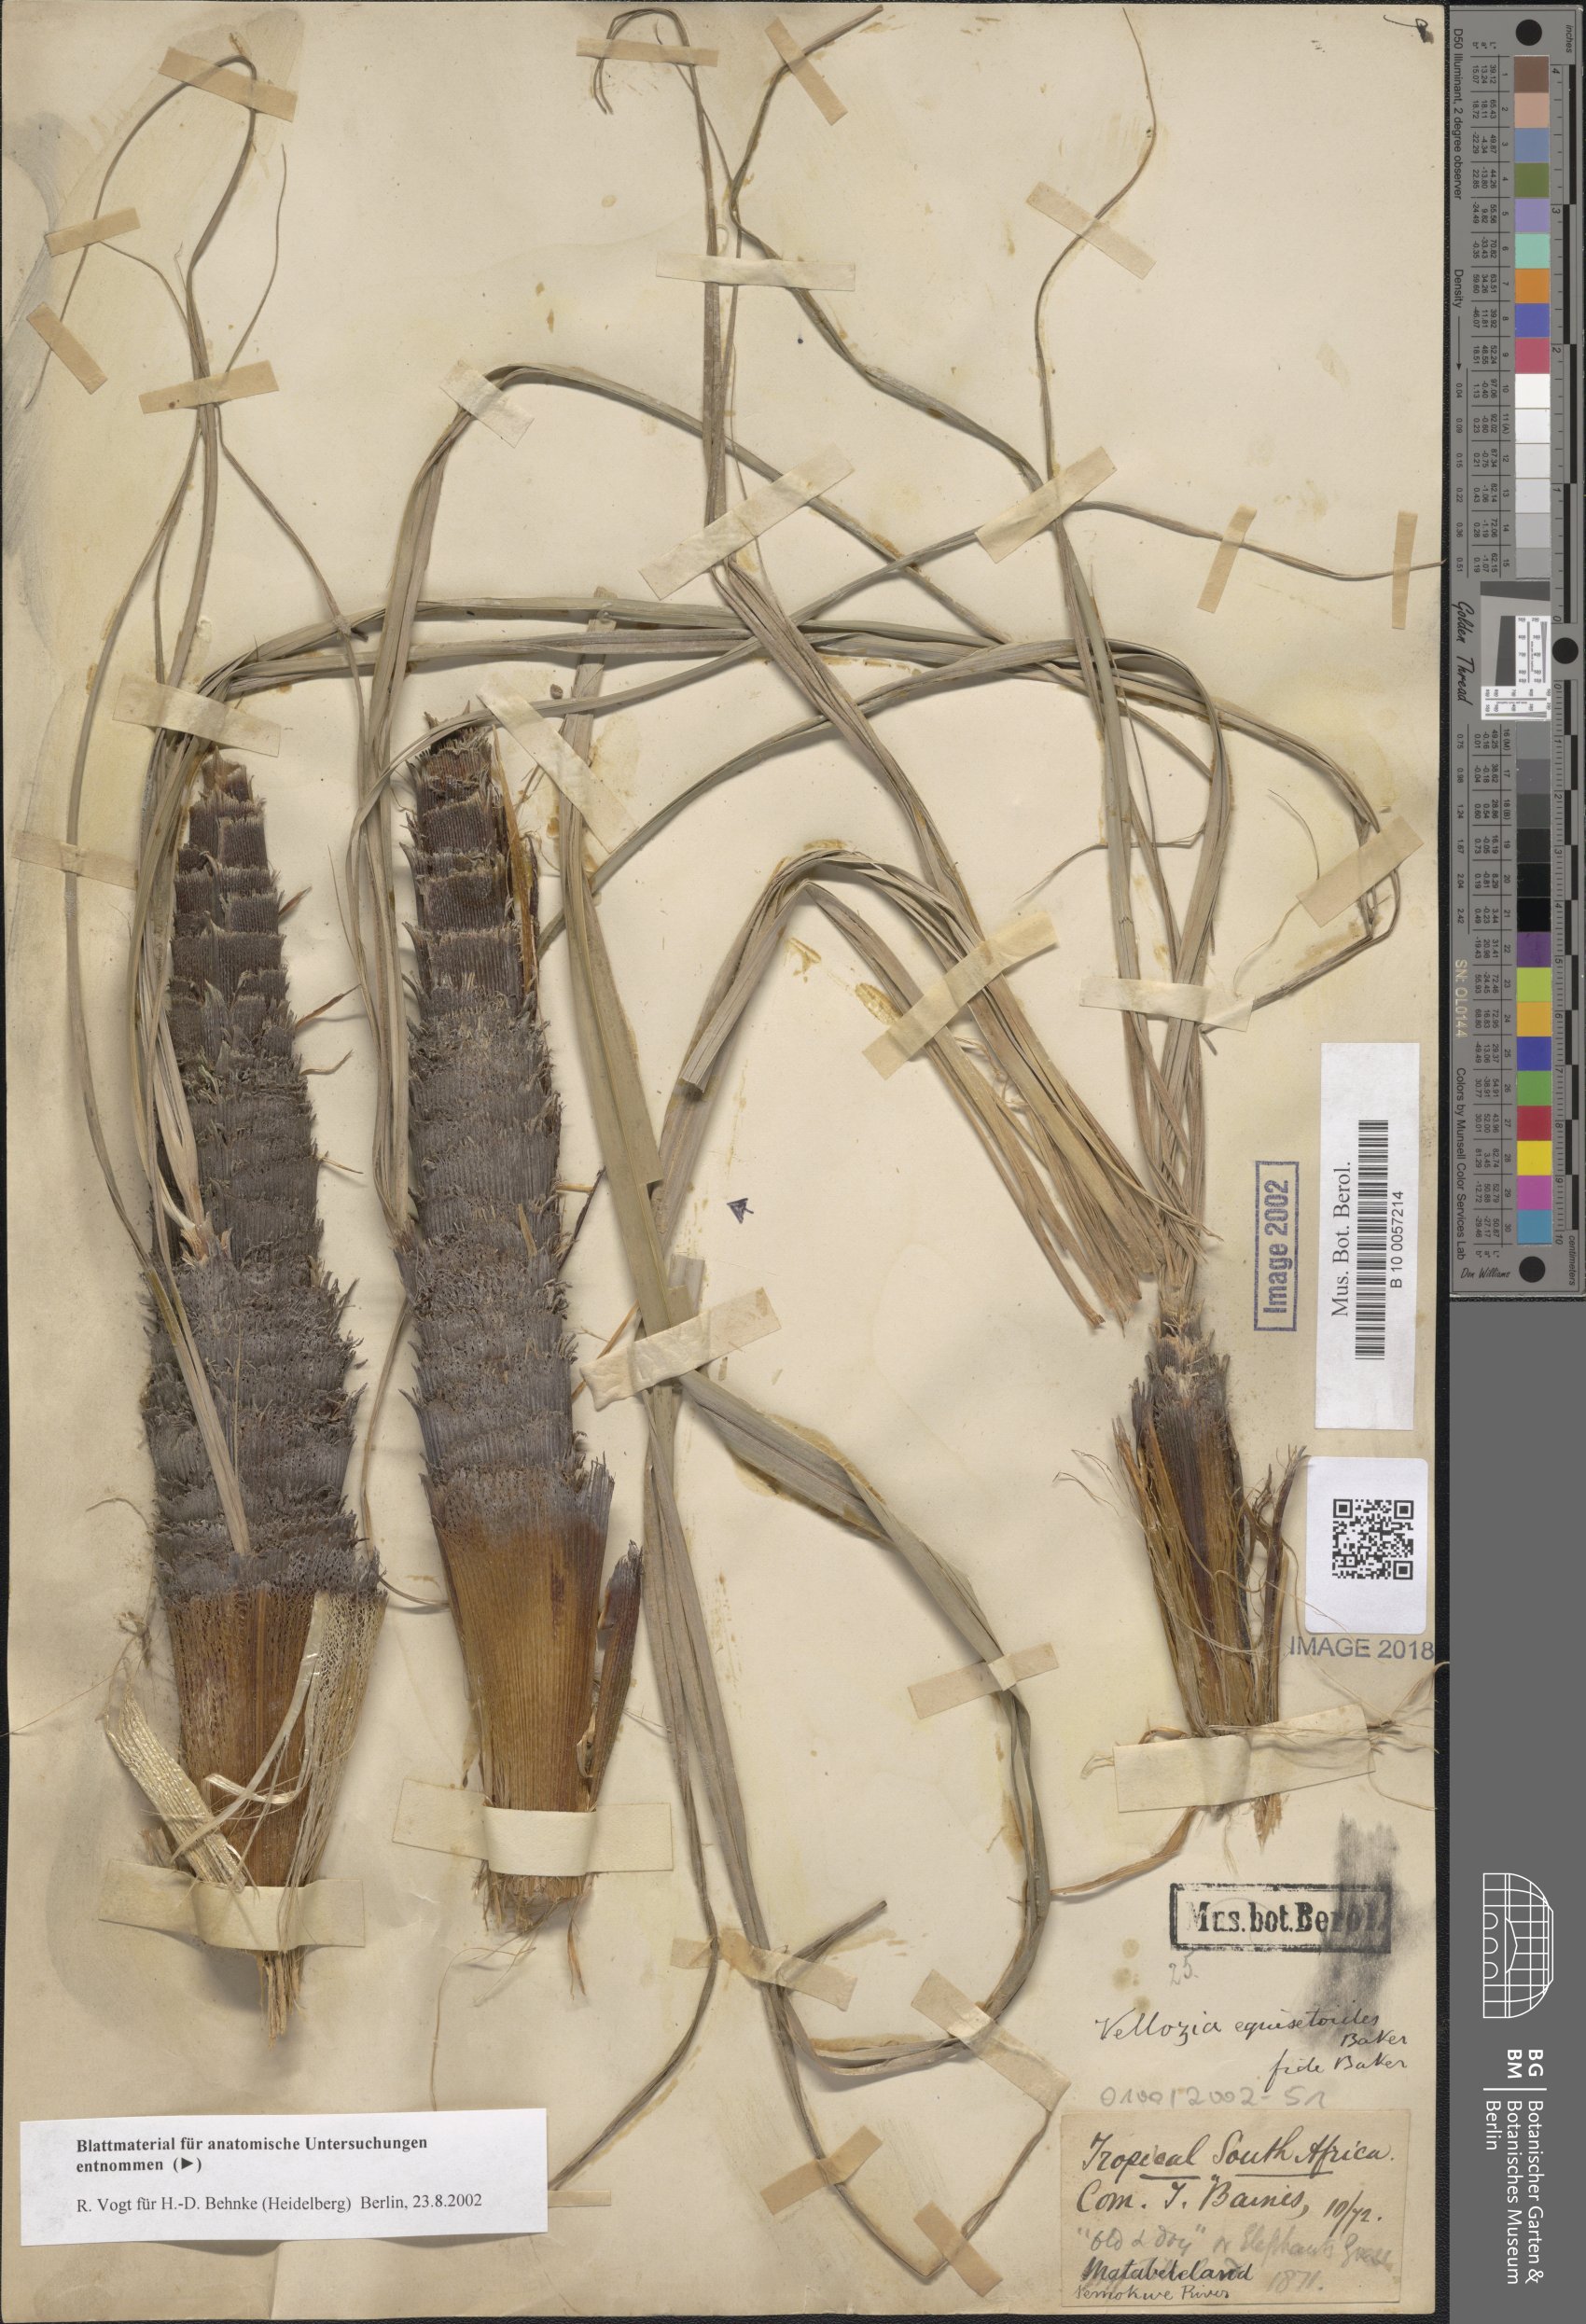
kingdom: Plantae
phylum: Tracheophyta
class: Liliopsida
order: Pandanales
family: Velloziaceae
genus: Xerophyta
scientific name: Xerophyta equisetoides
